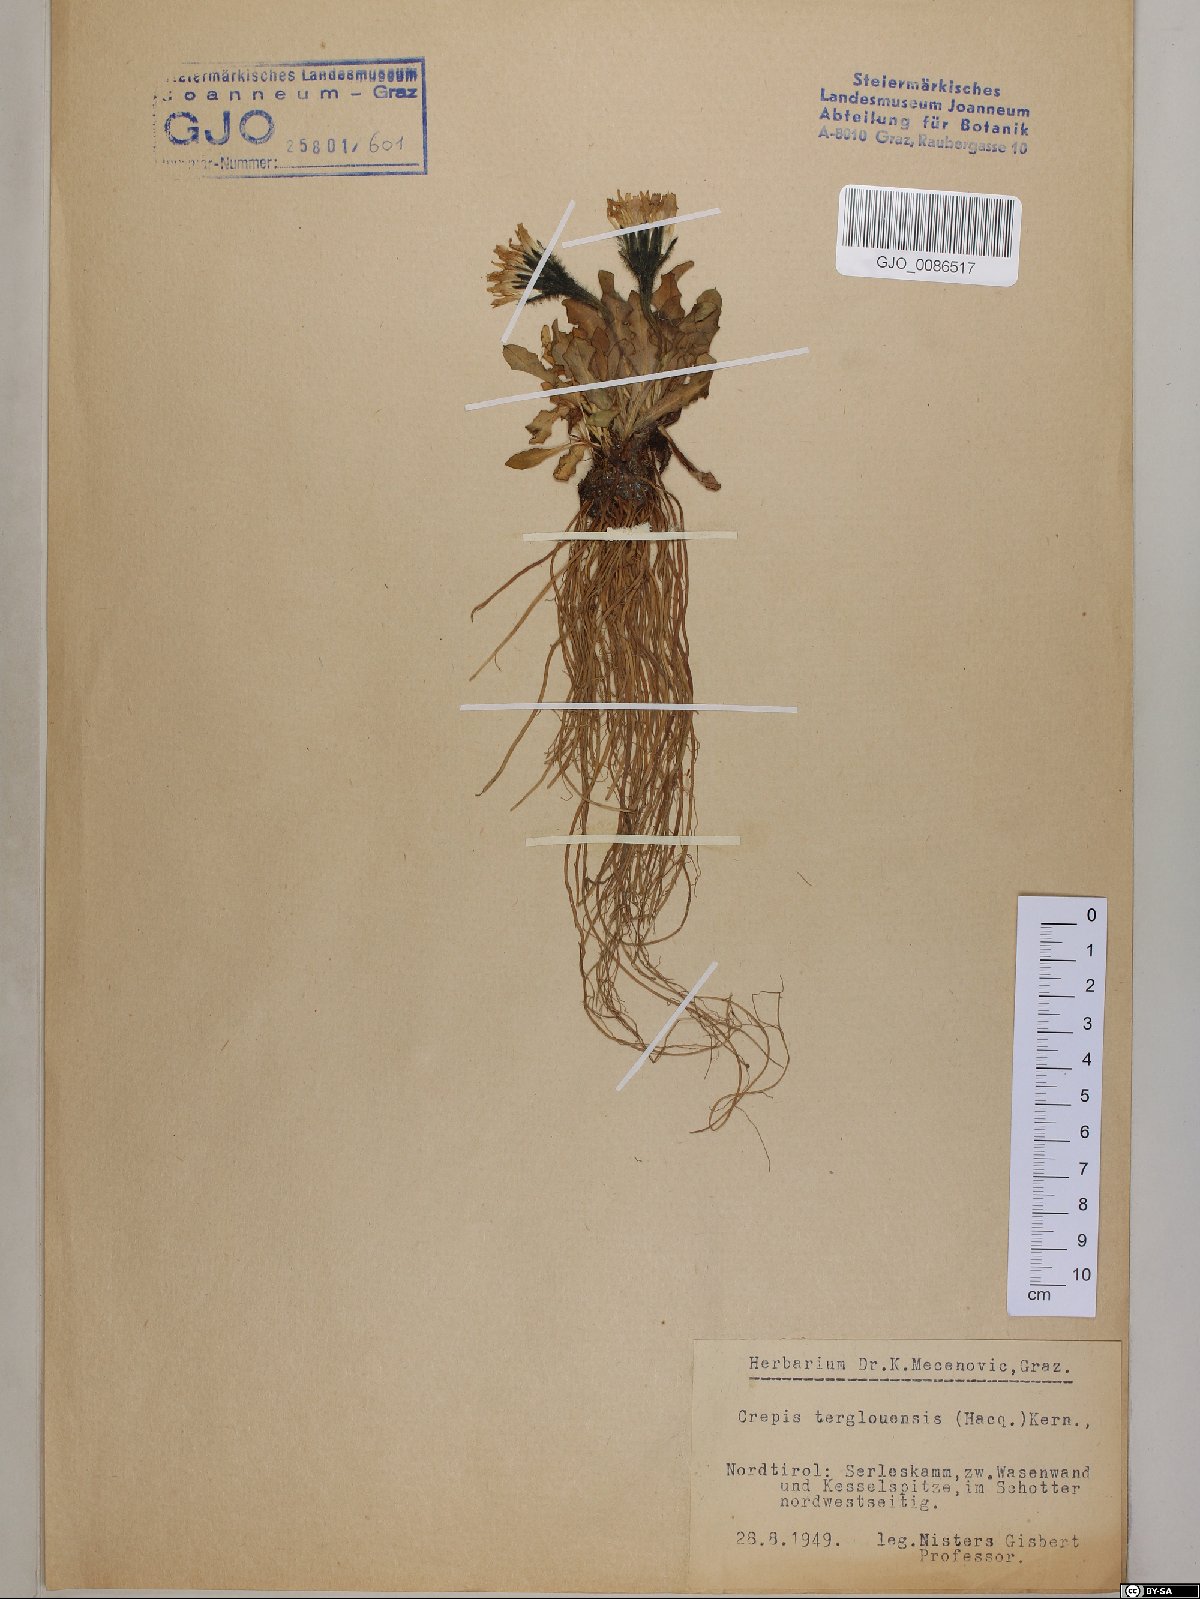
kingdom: Plantae
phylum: Tracheophyta
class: Magnoliopsida
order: Asterales
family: Asteraceae
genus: Crepis
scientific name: Crepis terglouensis
